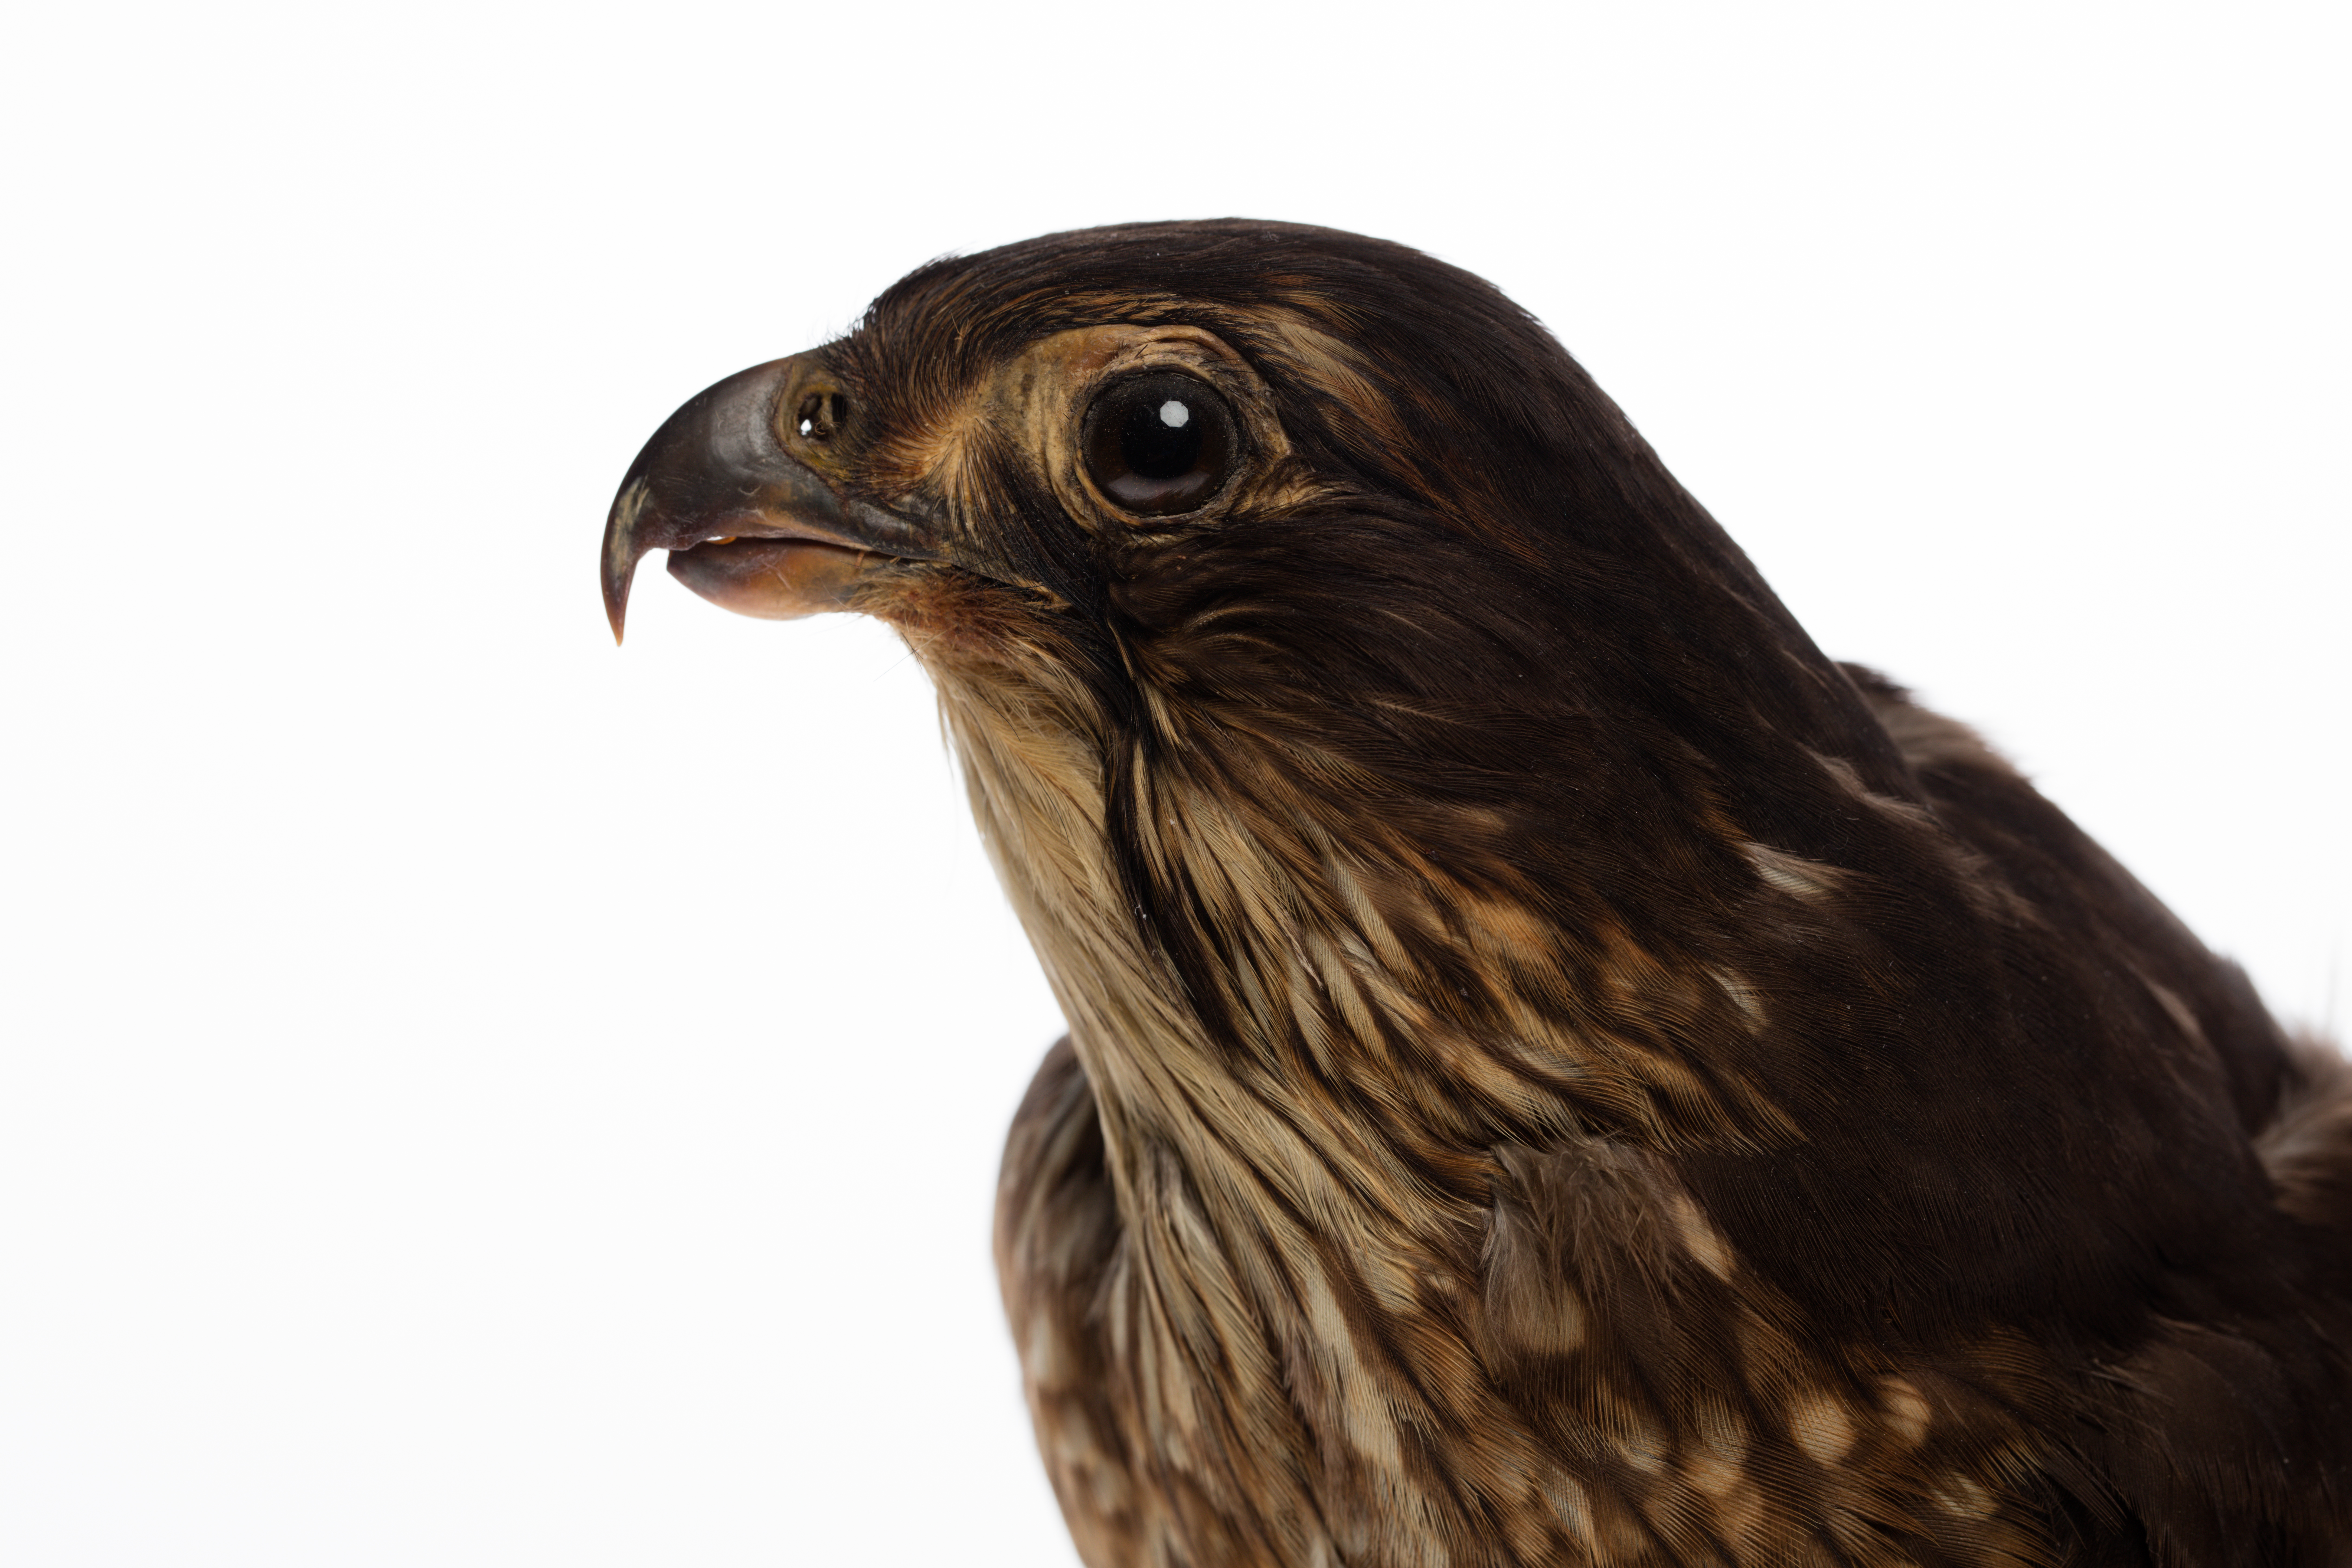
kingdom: Animalia
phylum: Chordata
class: Aves
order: Falconiformes
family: Falconidae
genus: Falco
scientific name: Falco novaeseelandiae
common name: New zealand falcon
